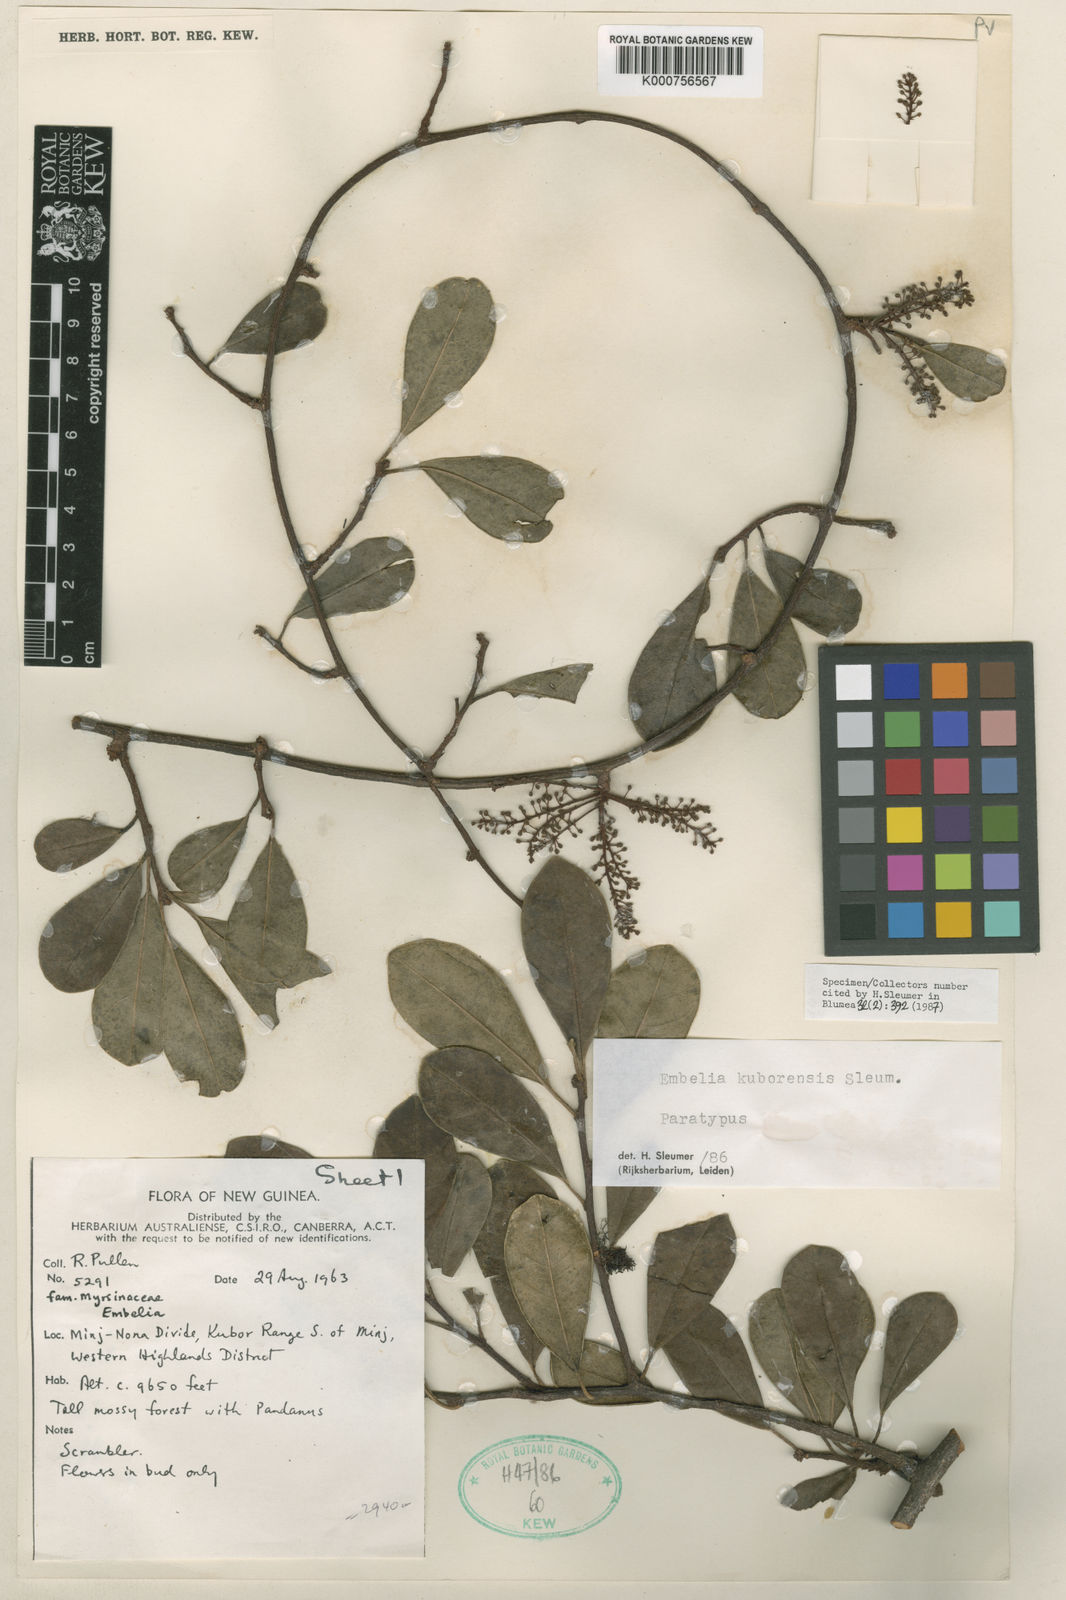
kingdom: Plantae
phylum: Tracheophyta
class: Magnoliopsida
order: Ericales
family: Primulaceae
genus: Embelia
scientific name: Embelia kuborensis
